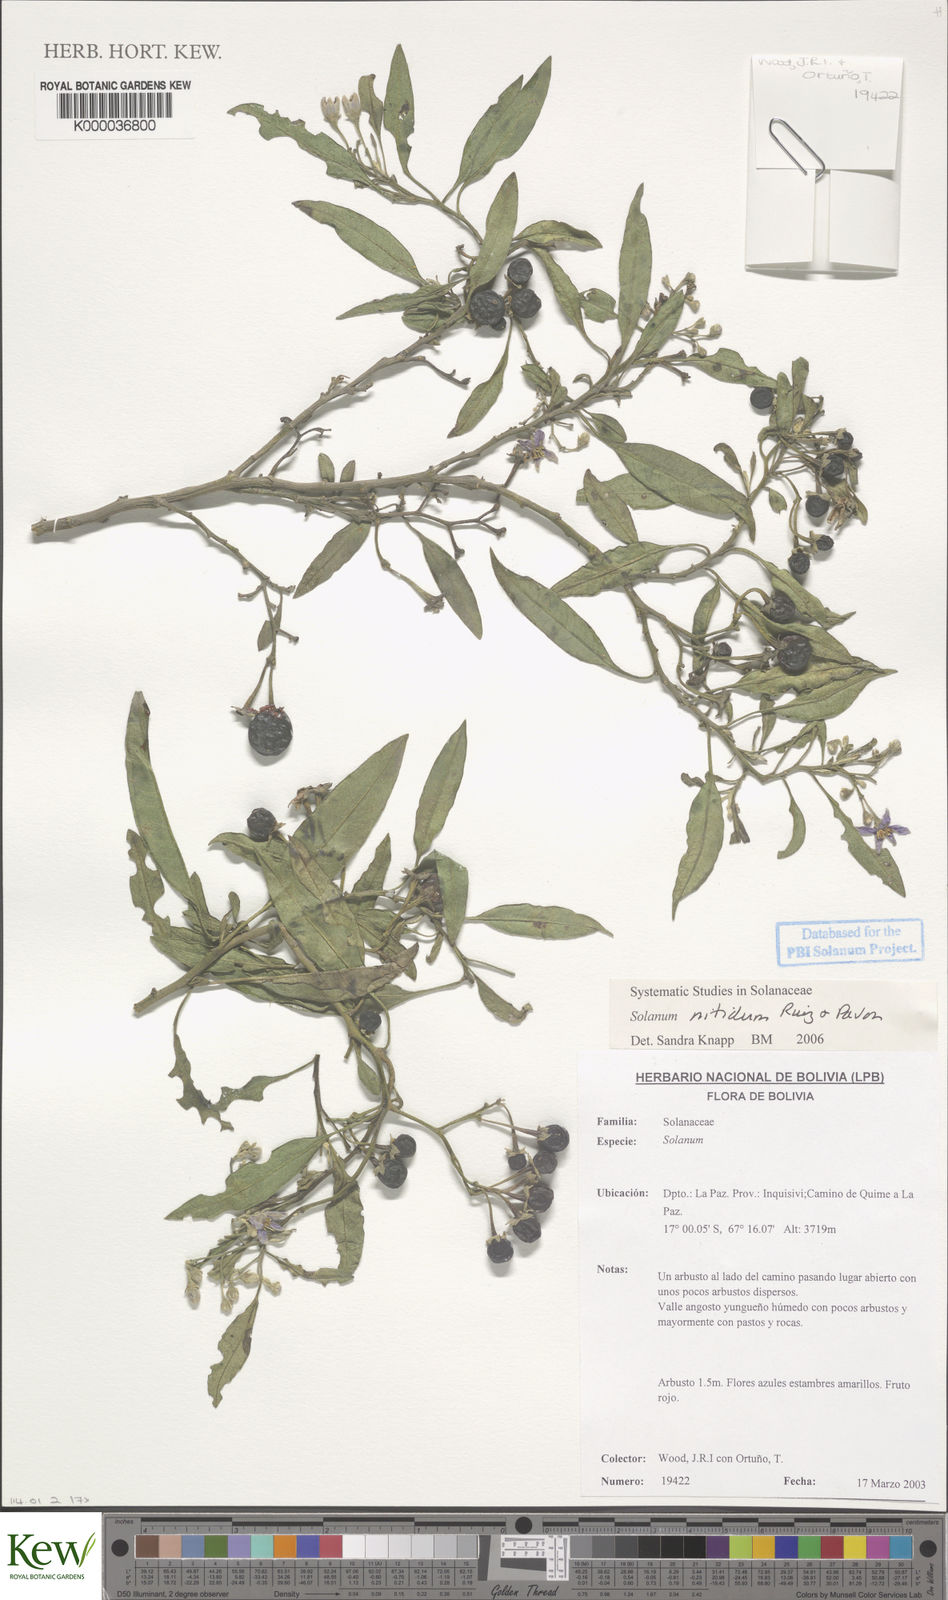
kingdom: Plantae
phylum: Tracheophyta
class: Magnoliopsida
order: Solanales
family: Solanaceae
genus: Solanum
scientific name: Solanum nitidum
